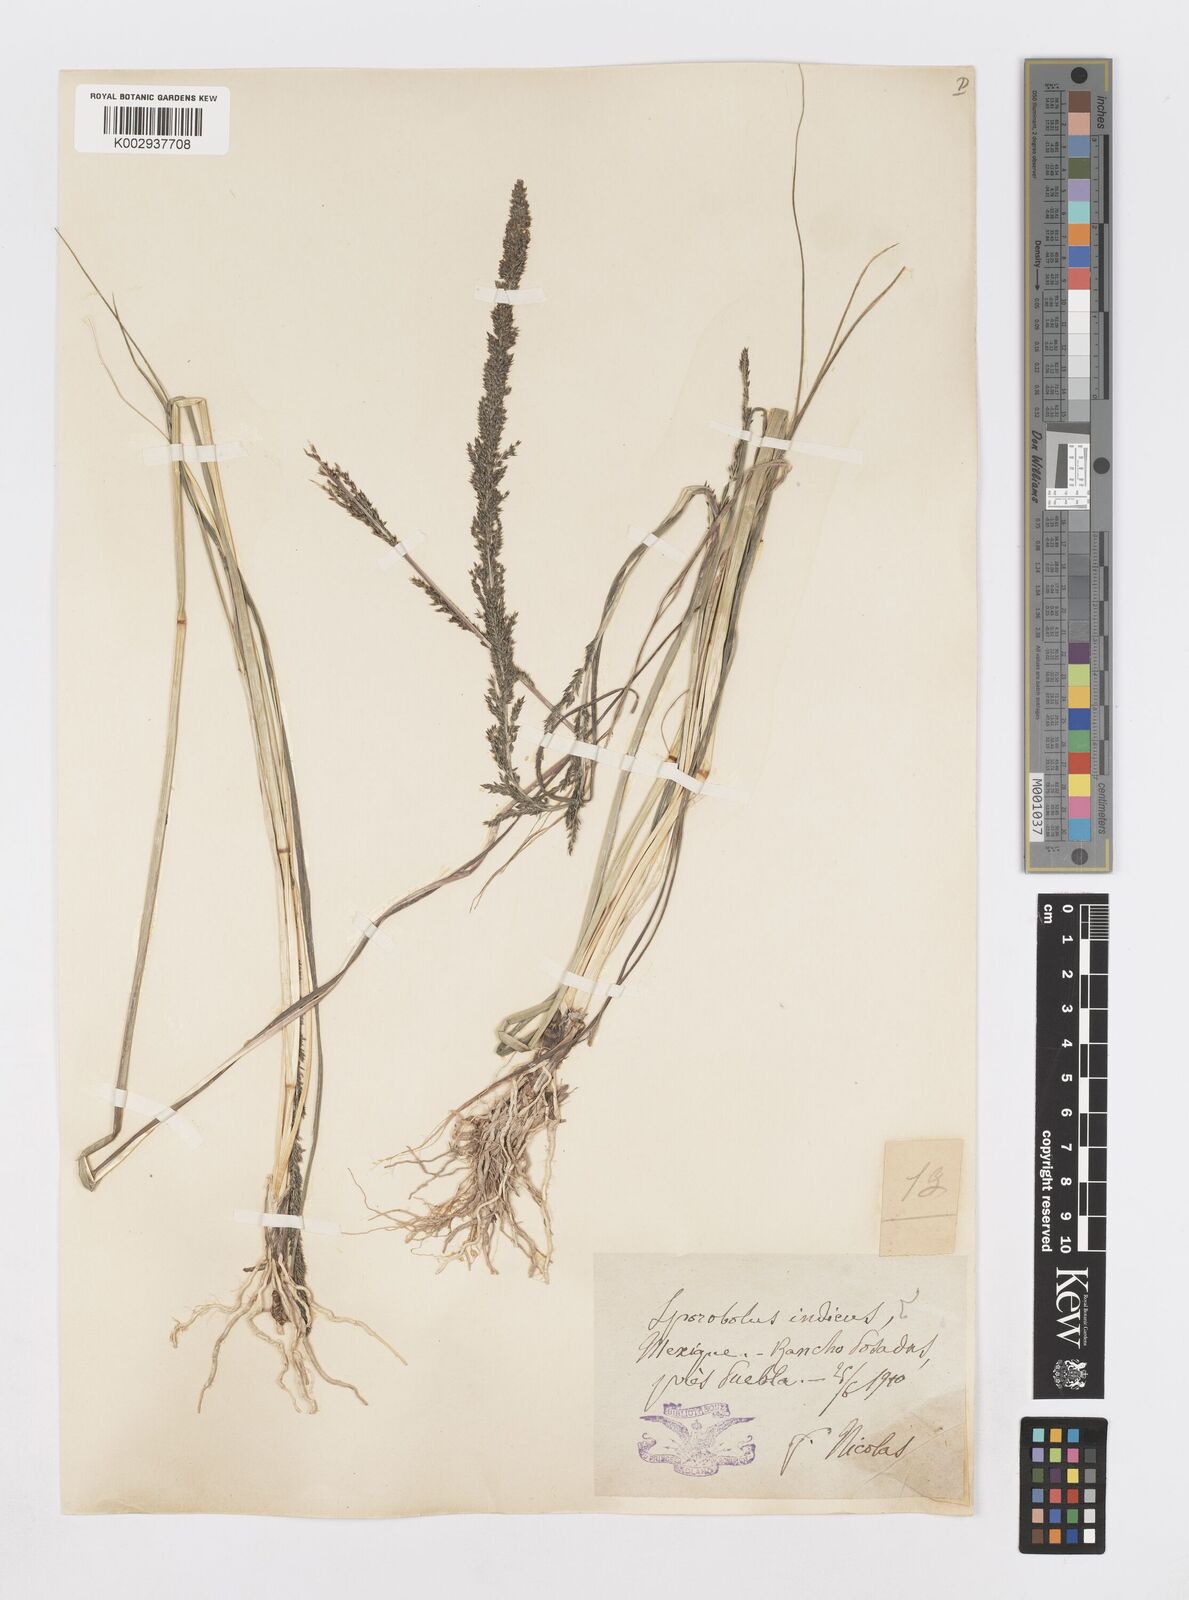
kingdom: Plantae
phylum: Tracheophyta
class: Liliopsida
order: Poales
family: Poaceae
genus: Sporobolus
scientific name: Sporobolus junceus
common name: Lizard grass
